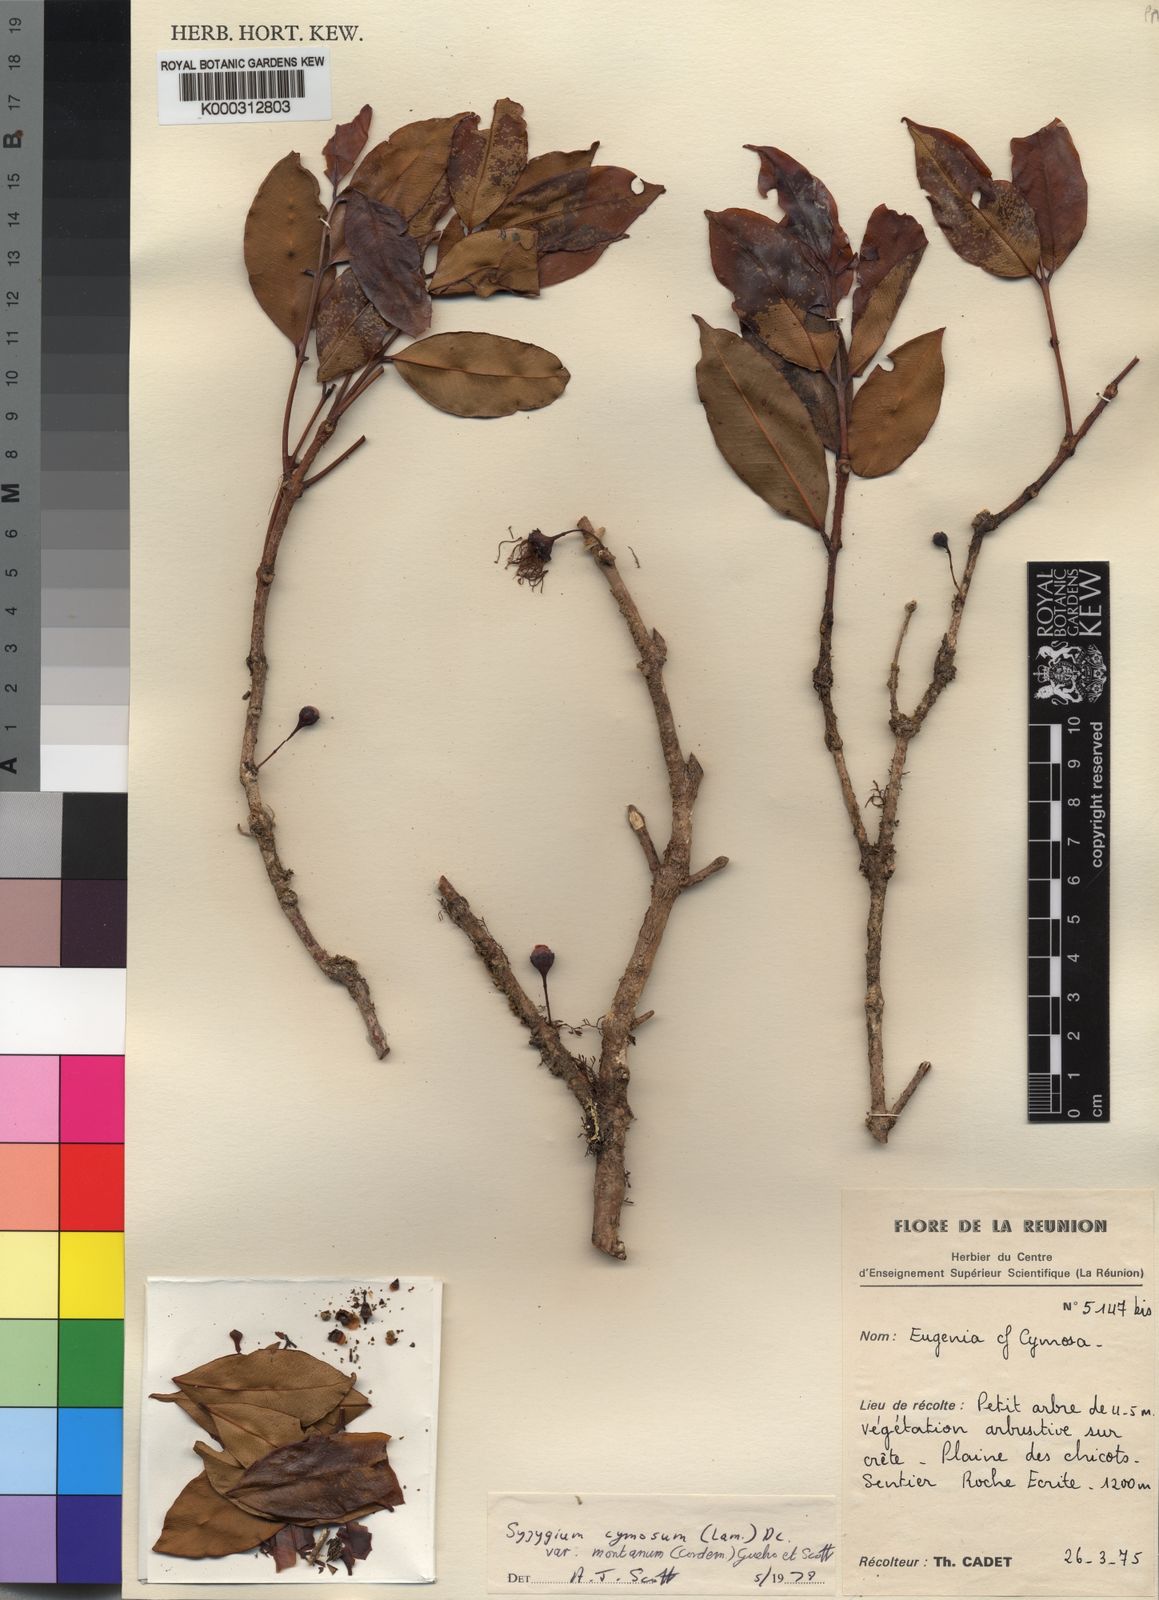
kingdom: Plantae
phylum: Tracheophyta
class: Magnoliopsida
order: Myrtales
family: Myrtaceae
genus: Syzygium
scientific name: Syzygium
